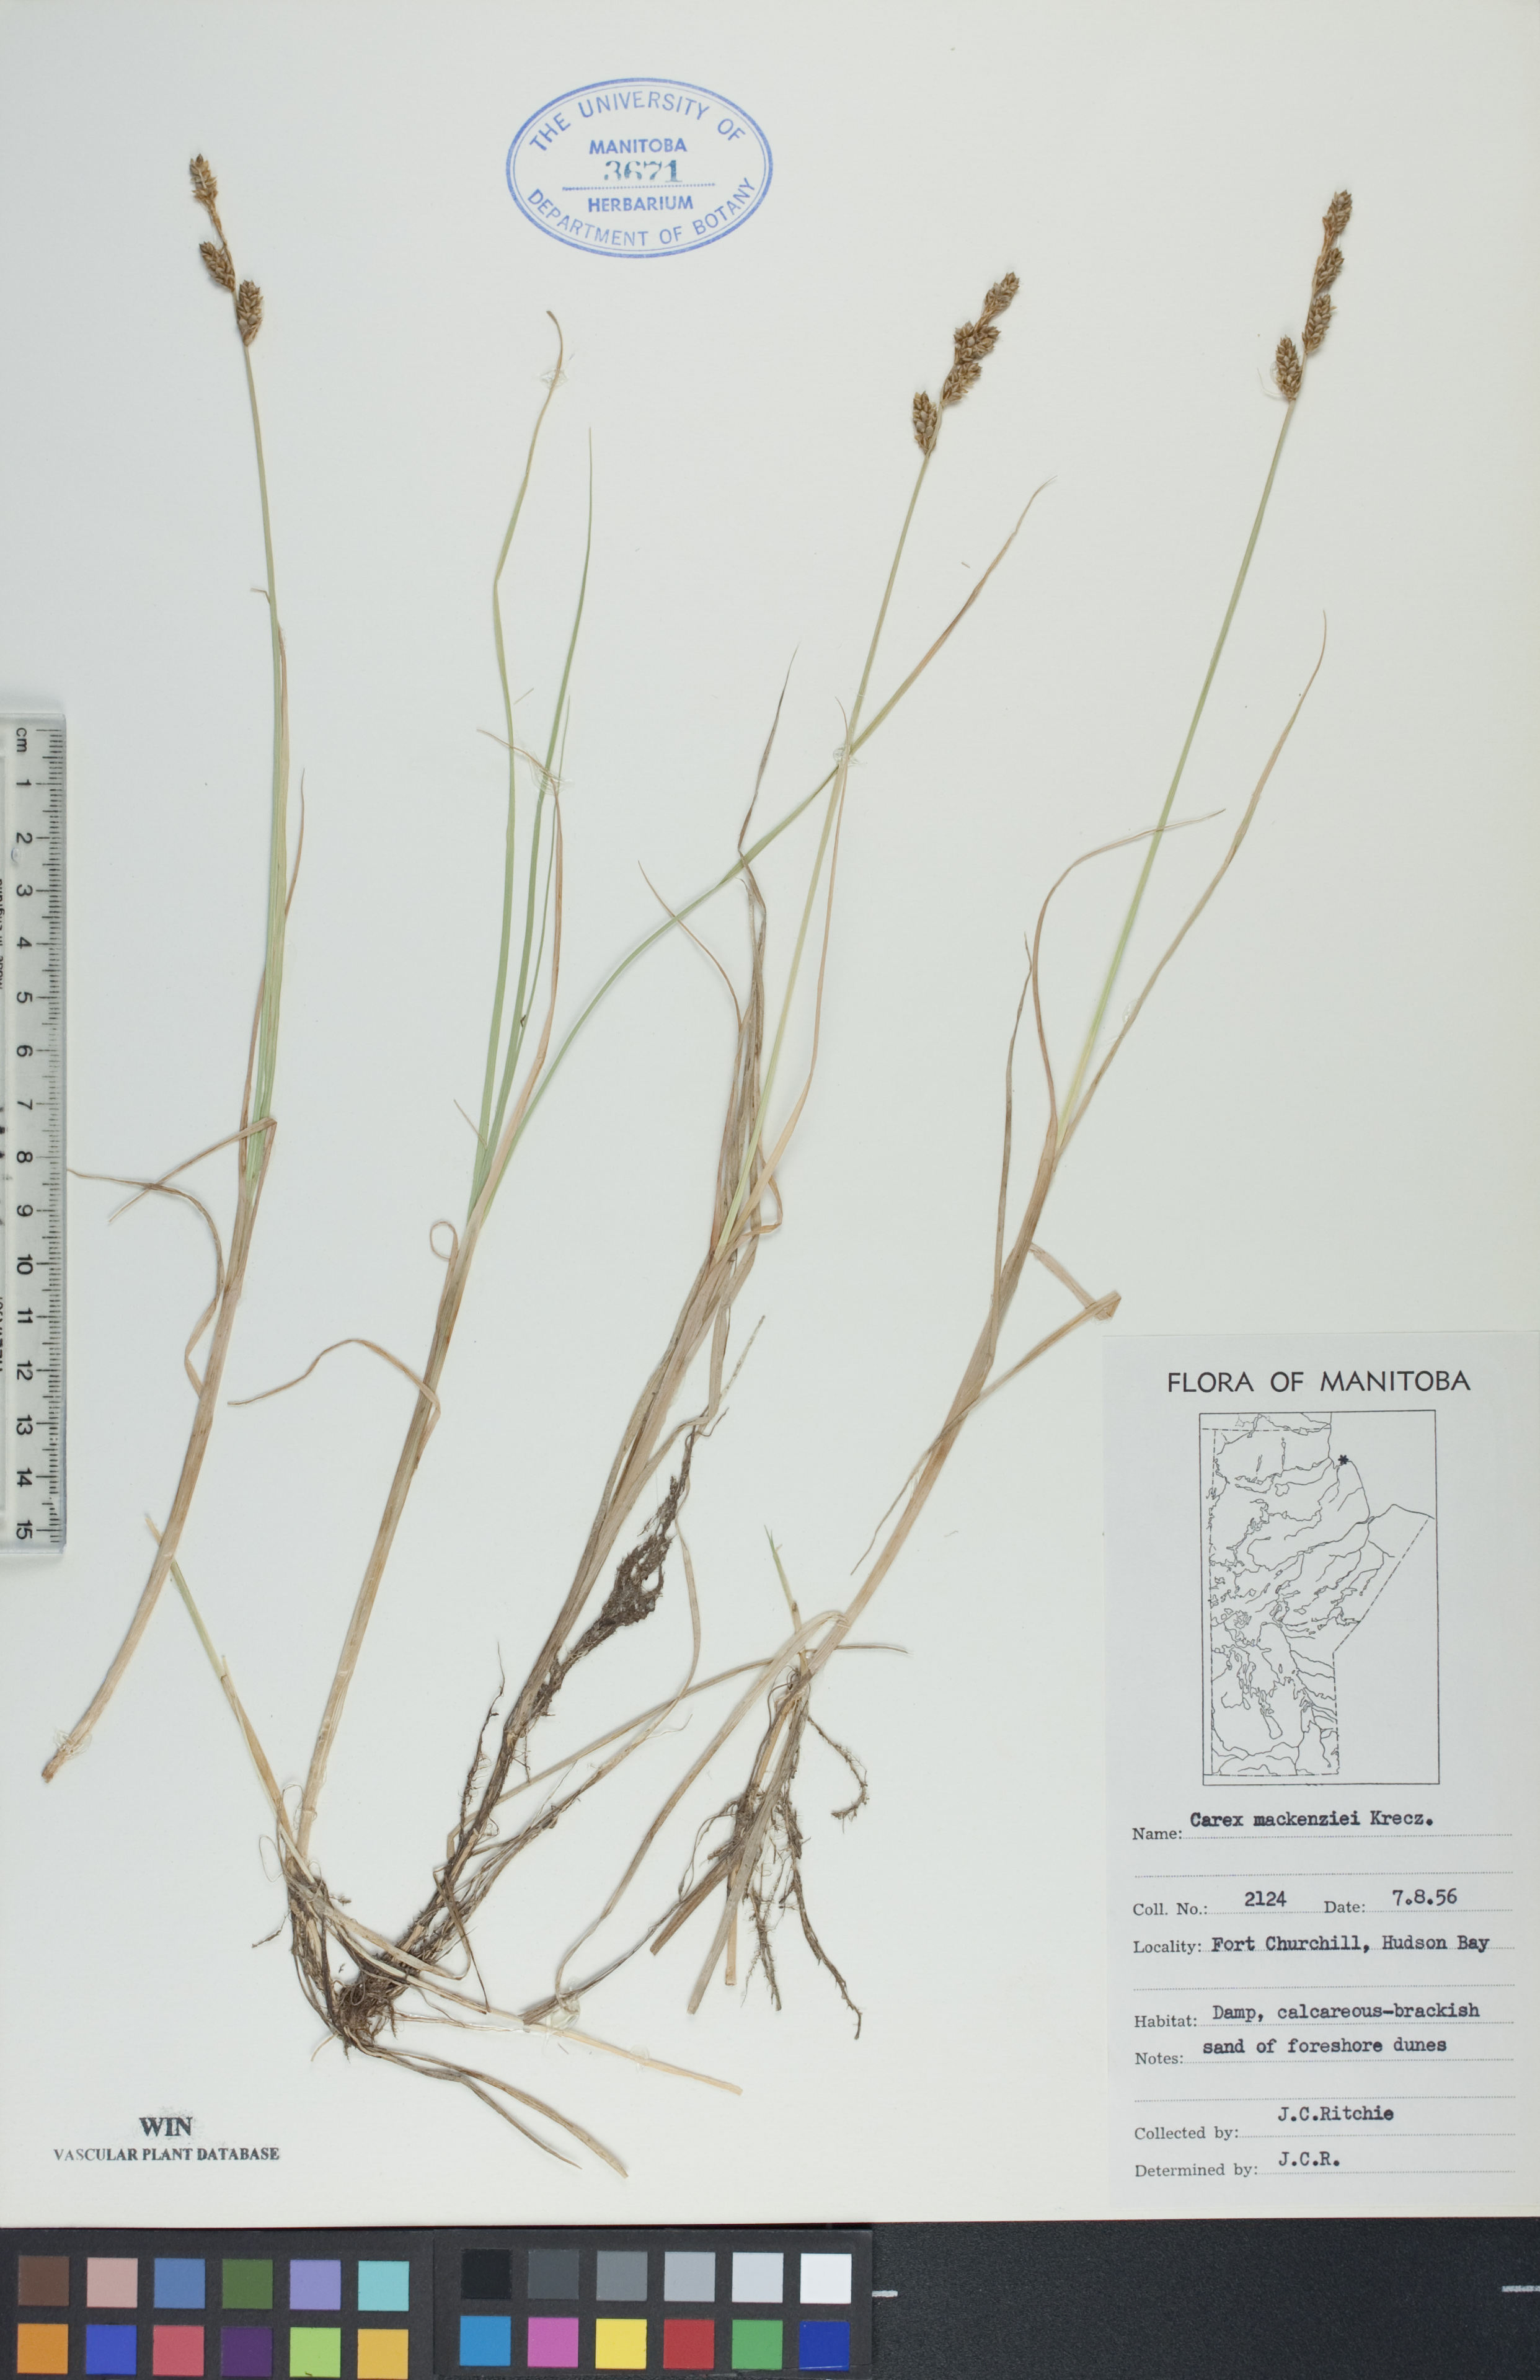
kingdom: Plantae
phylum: Tracheophyta
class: Liliopsida
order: Poales
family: Cyperaceae
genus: Carex
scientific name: Carex mackenziei
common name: Mackenzie's sedge
